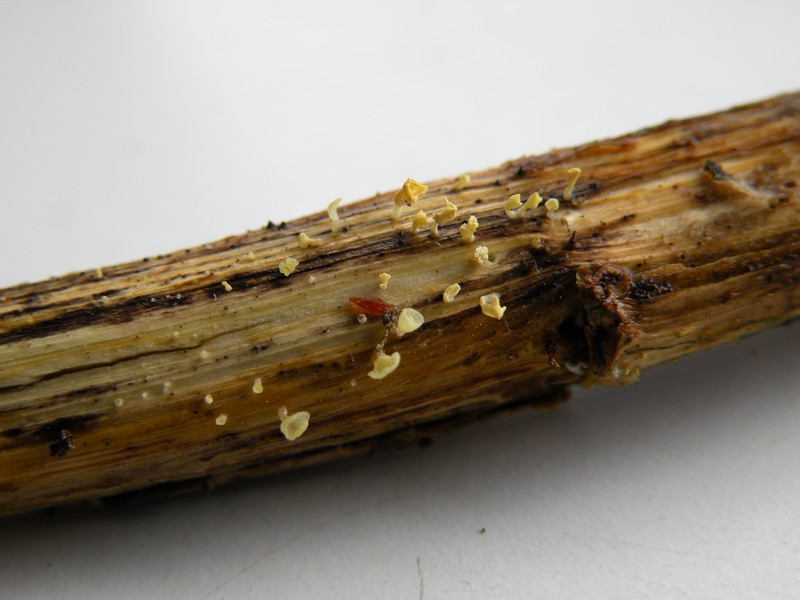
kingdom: Fungi
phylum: Basidiomycota
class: Agaricomycetes
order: Agaricales
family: Marasmiaceae
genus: Calyptella
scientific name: Calyptella campanula
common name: gul nældehue
